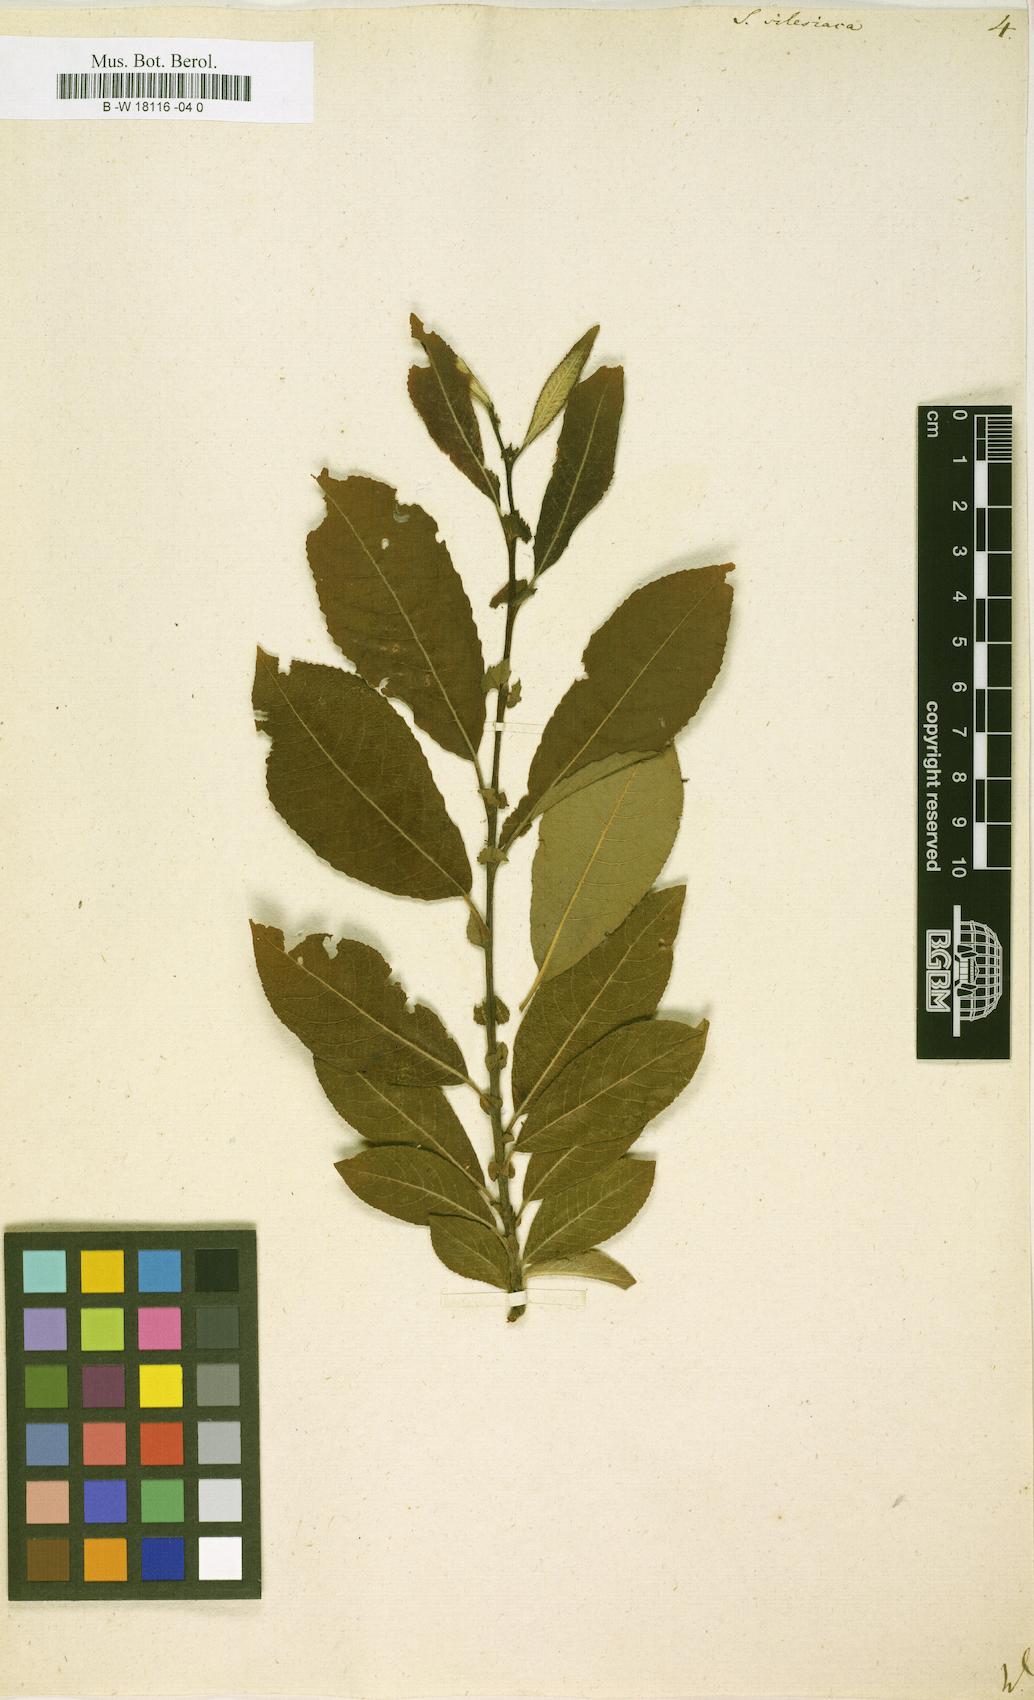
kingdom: Plantae
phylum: Tracheophyta
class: Magnoliopsida
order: Malpighiales
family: Salicaceae
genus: Salix
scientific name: Salix silesiaca
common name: Silesian willow
